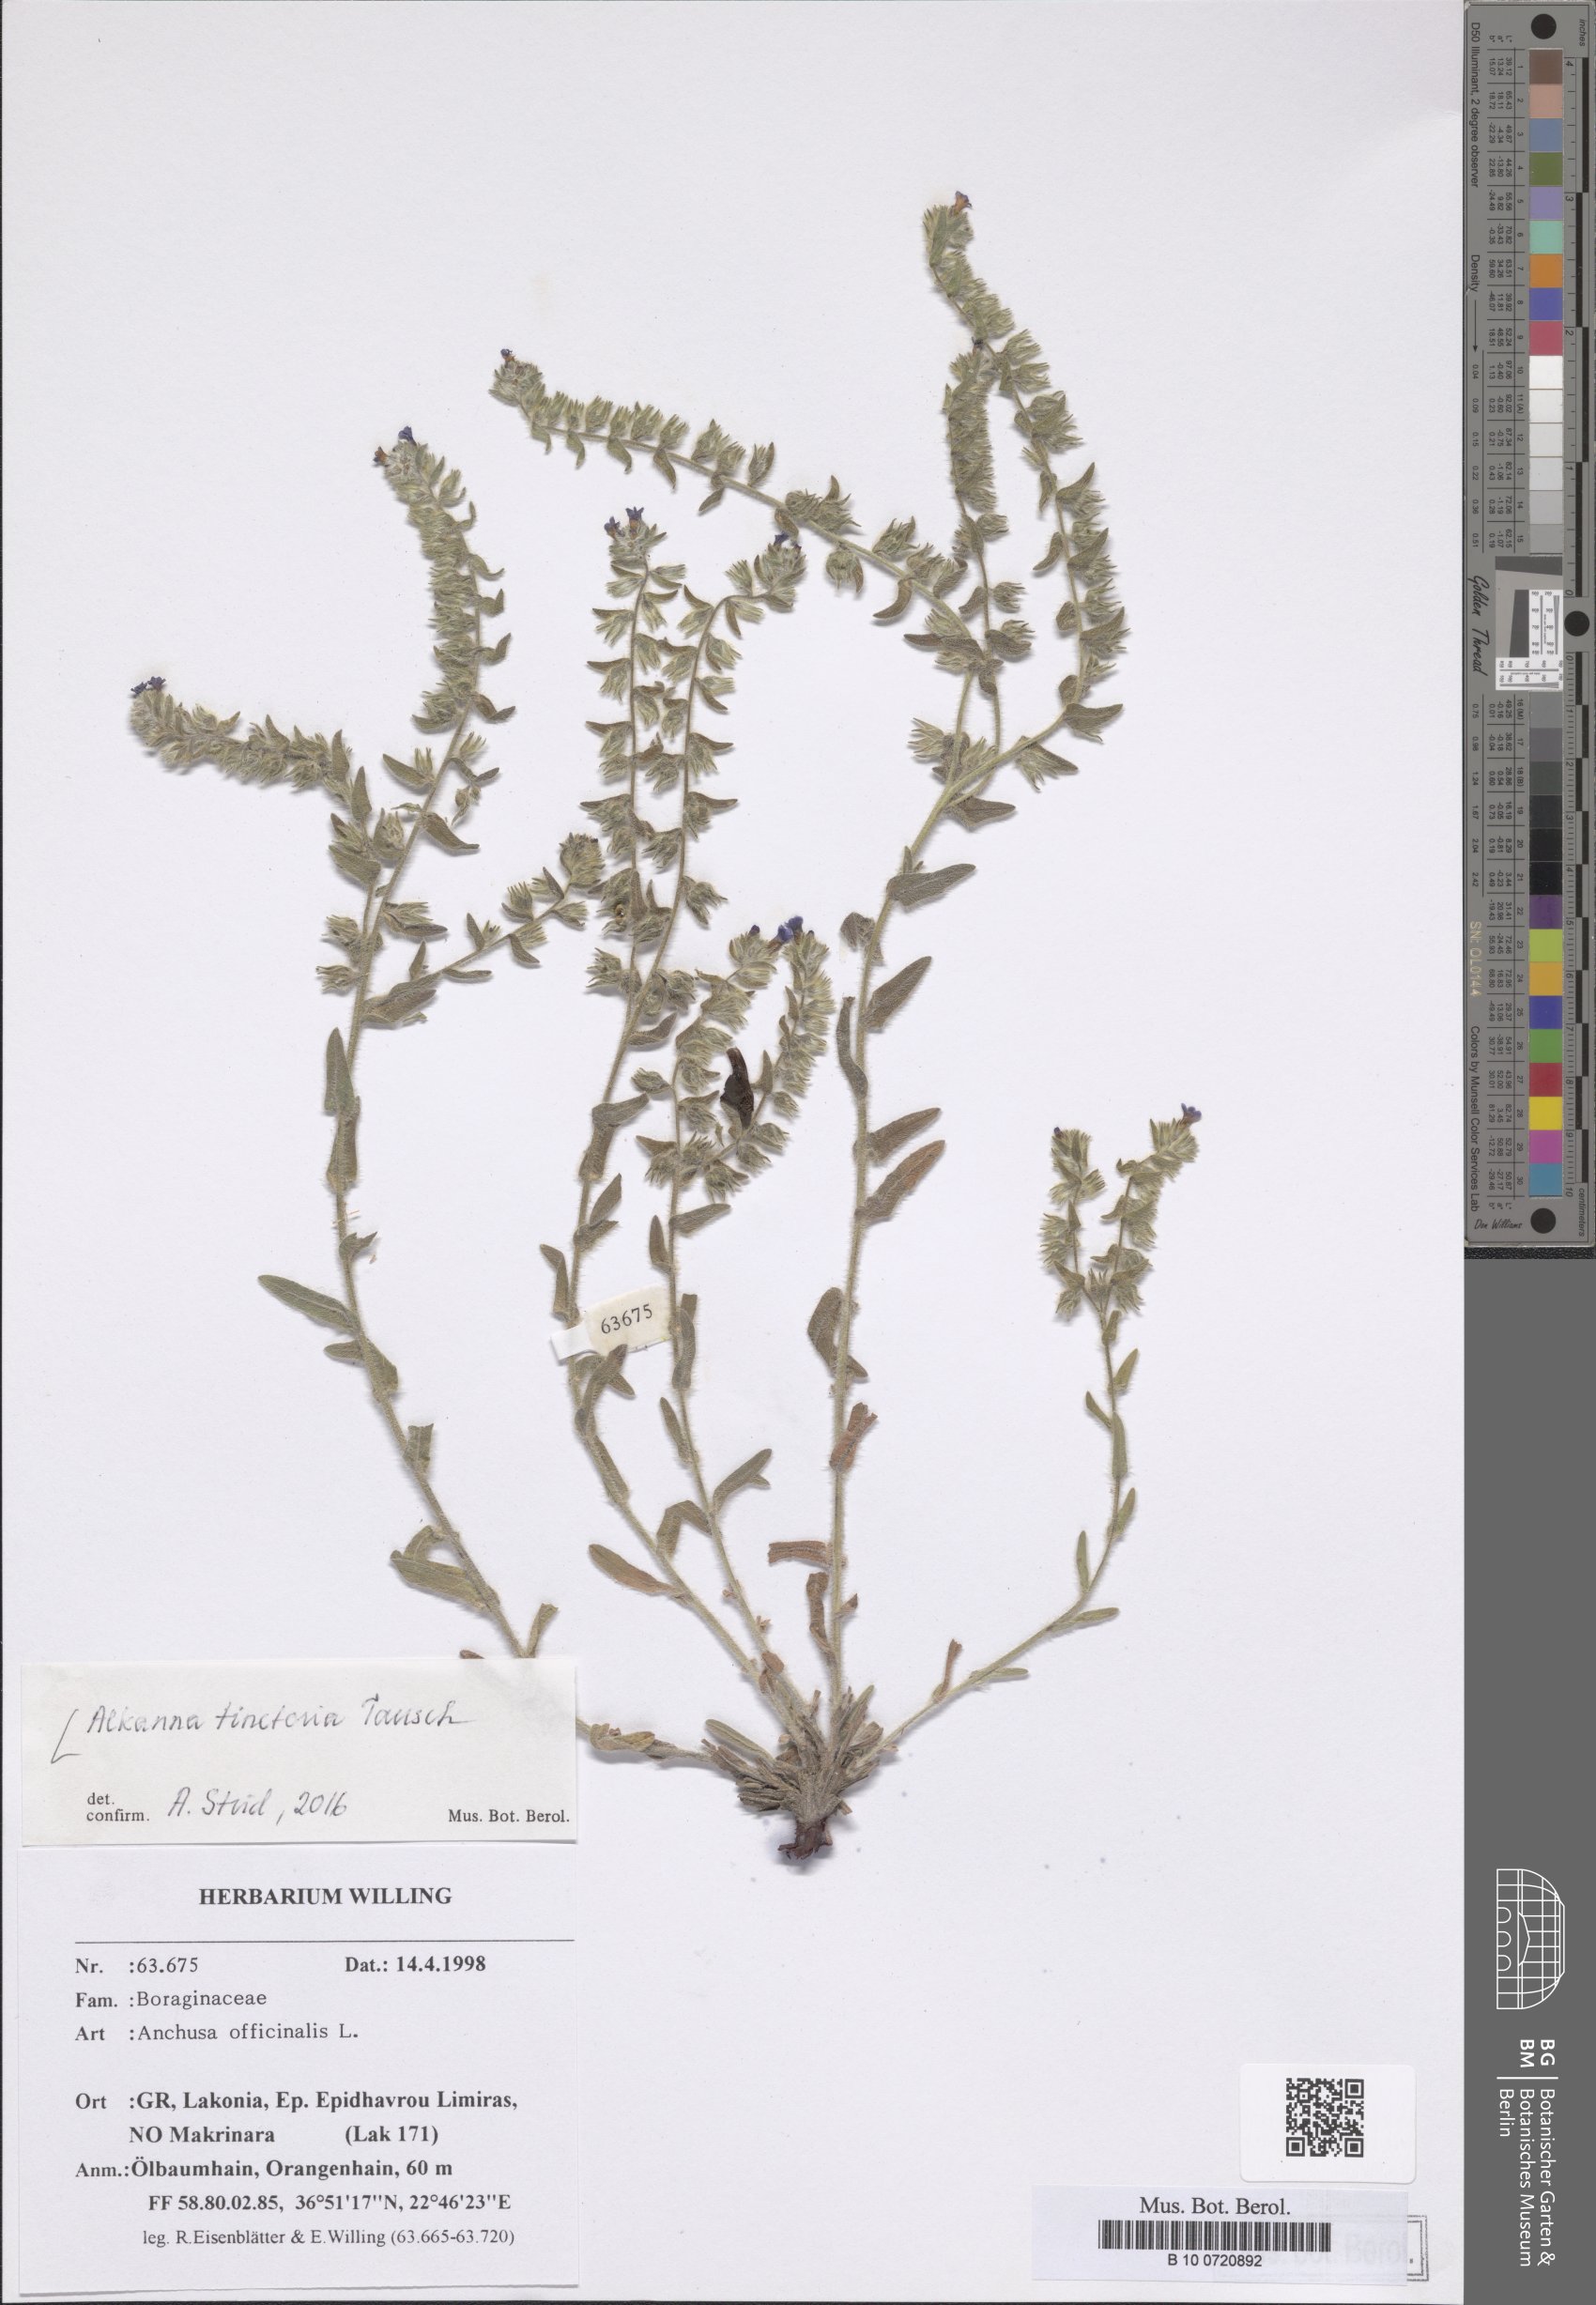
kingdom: Plantae
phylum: Tracheophyta
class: Magnoliopsida
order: Boraginales
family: Boraginaceae
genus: Alkanna
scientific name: Alkanna tinctoria
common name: Dyer's-alkanet
